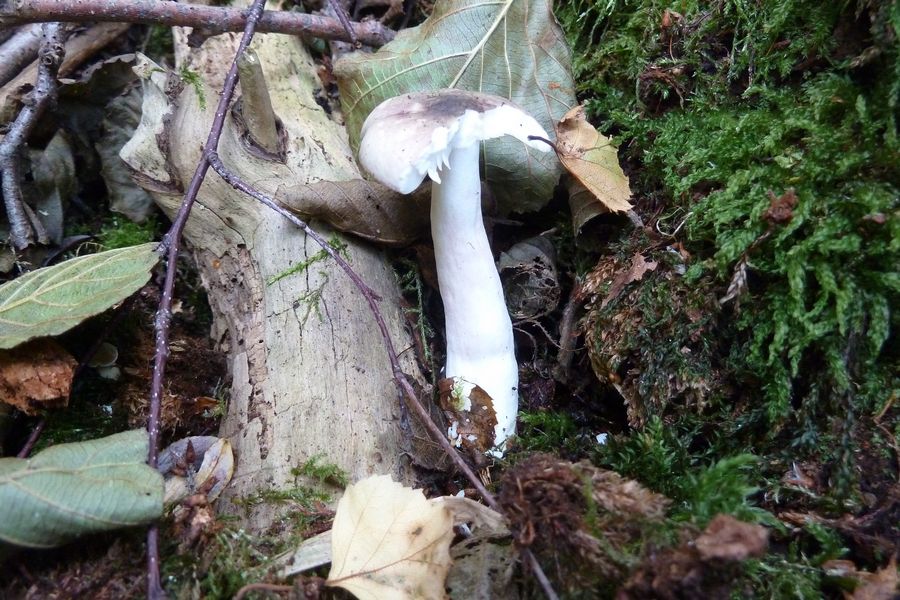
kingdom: Fungi
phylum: Basidiomycota
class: Agaricomycetes
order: Russulales
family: Russulaceae
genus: Russula
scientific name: Russula gracillima
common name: slank skørhat
